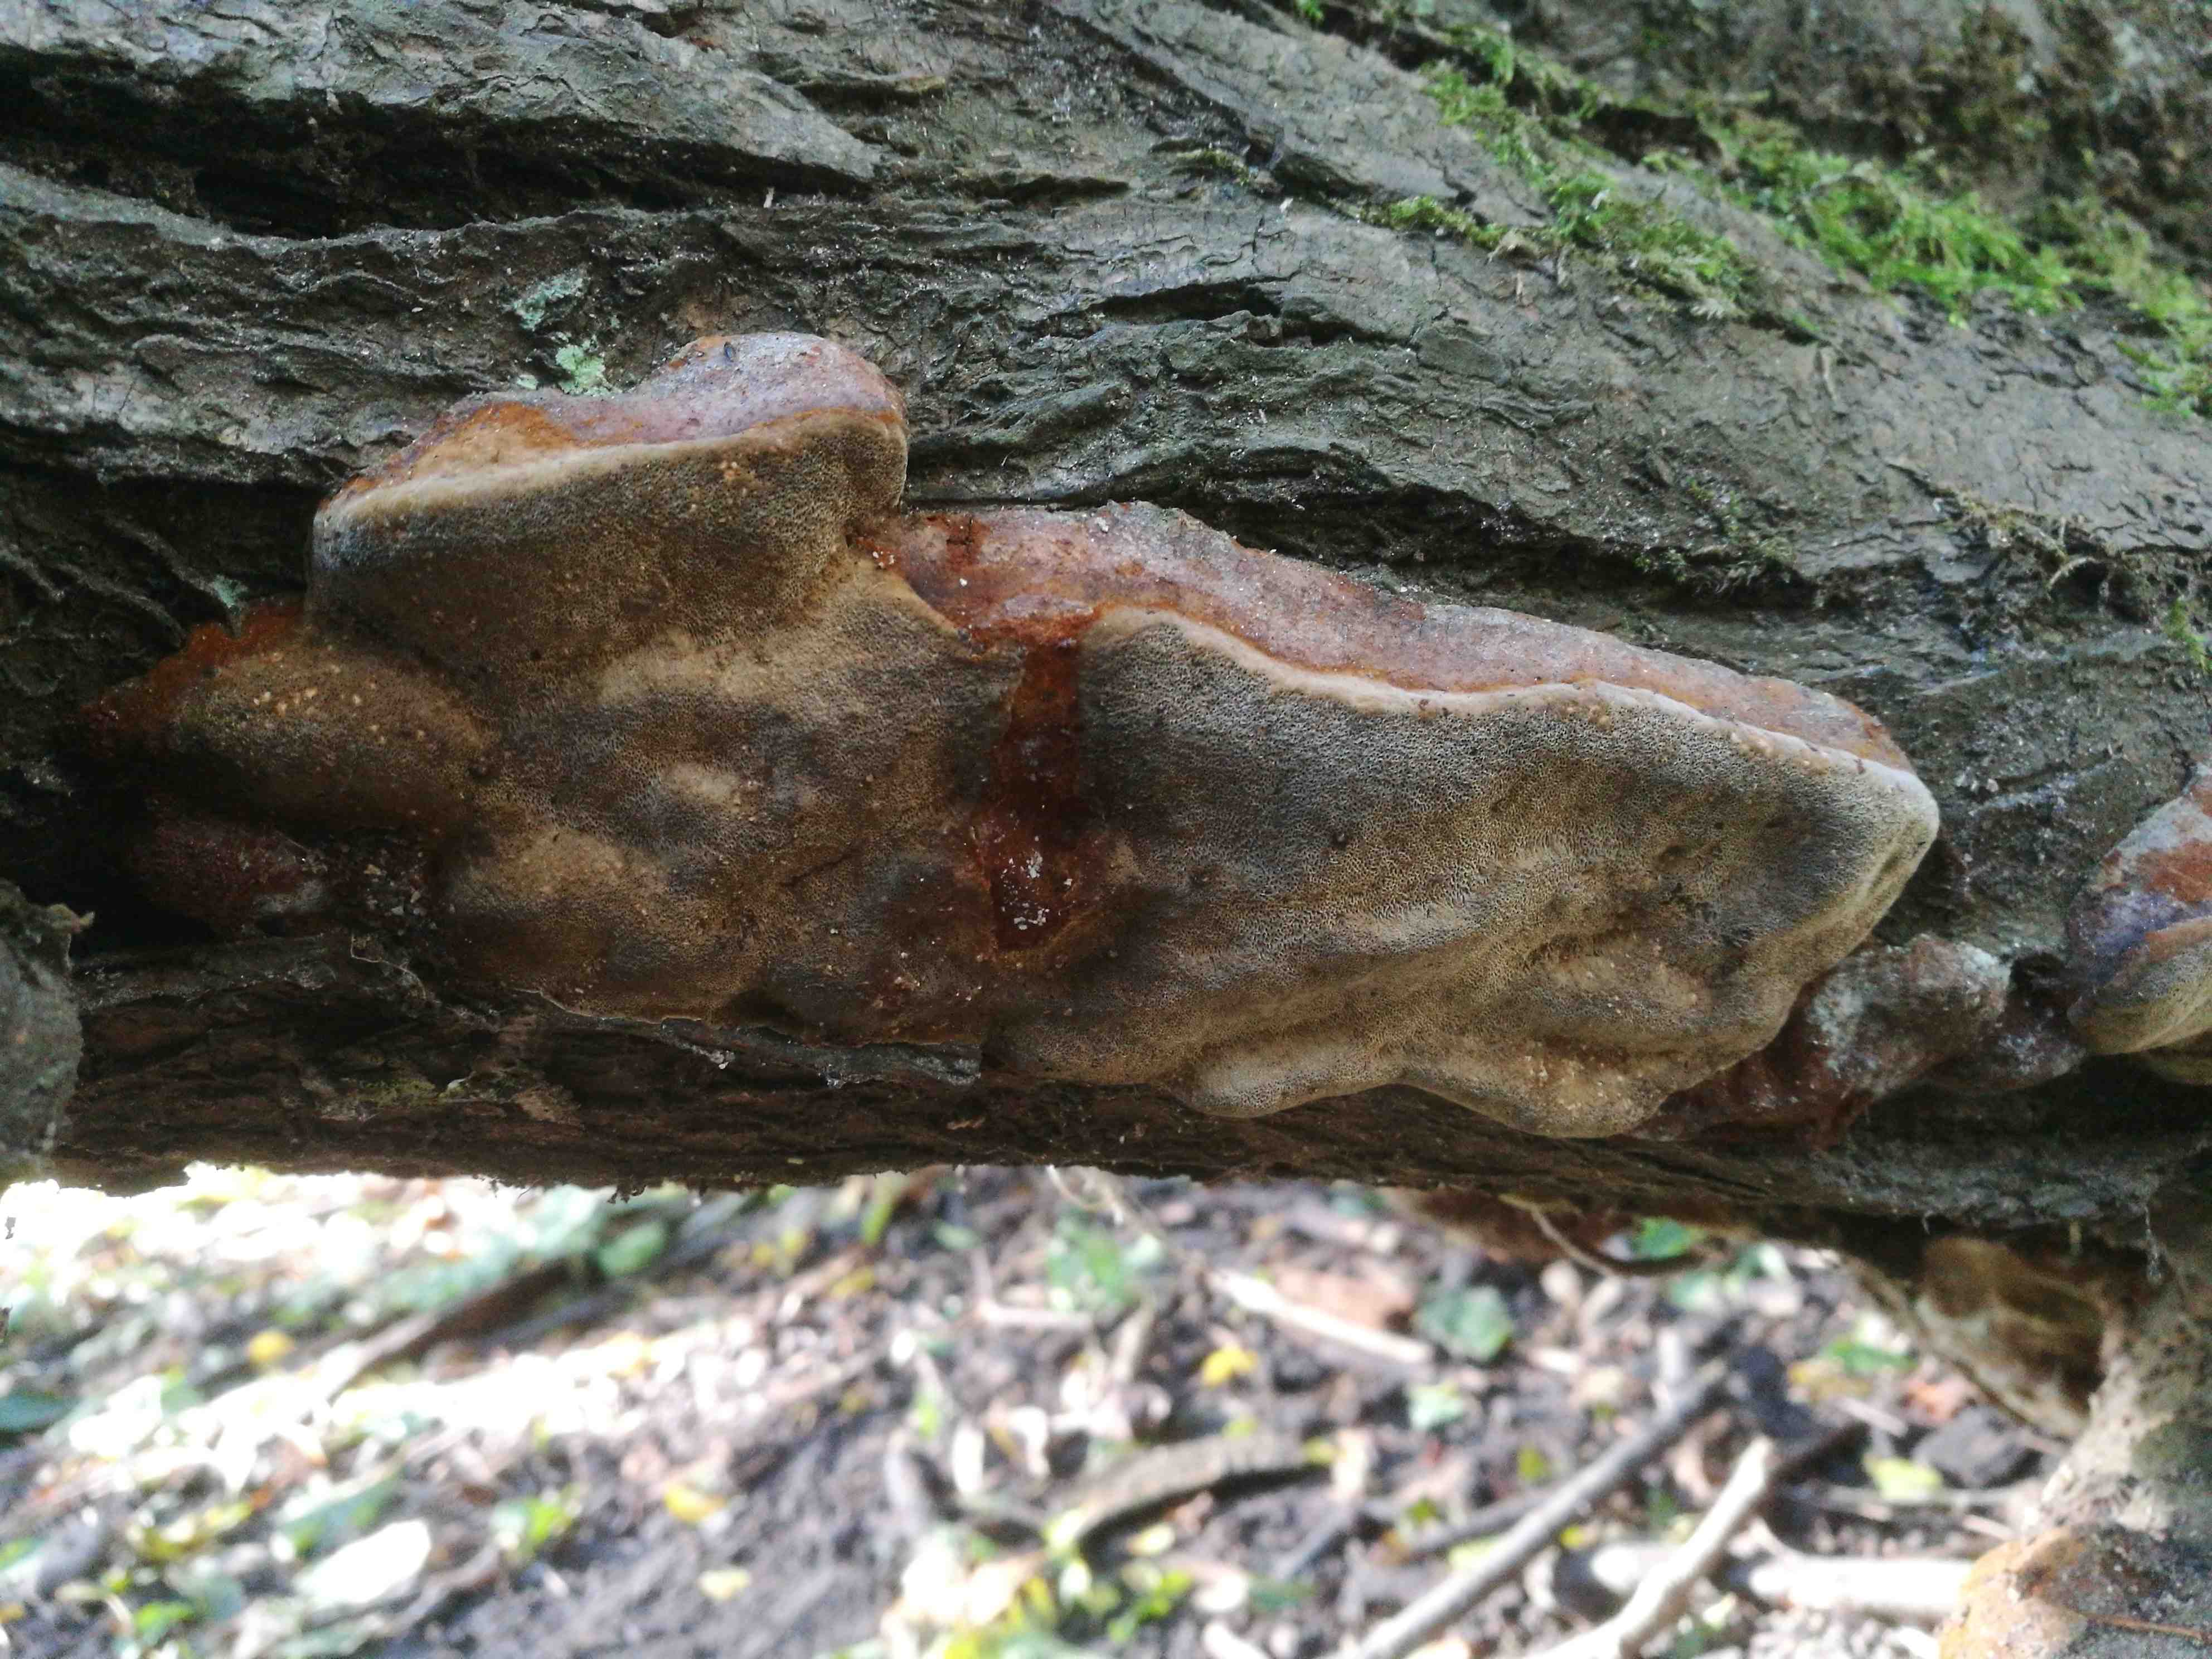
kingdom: Fungi
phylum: Basidiomycota
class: Agaricomycetes
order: Hymenochaetales
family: Hymenochaetaceae
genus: Phellinus
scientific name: Phellinus pomaceus
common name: blomme-ildporesvamp
